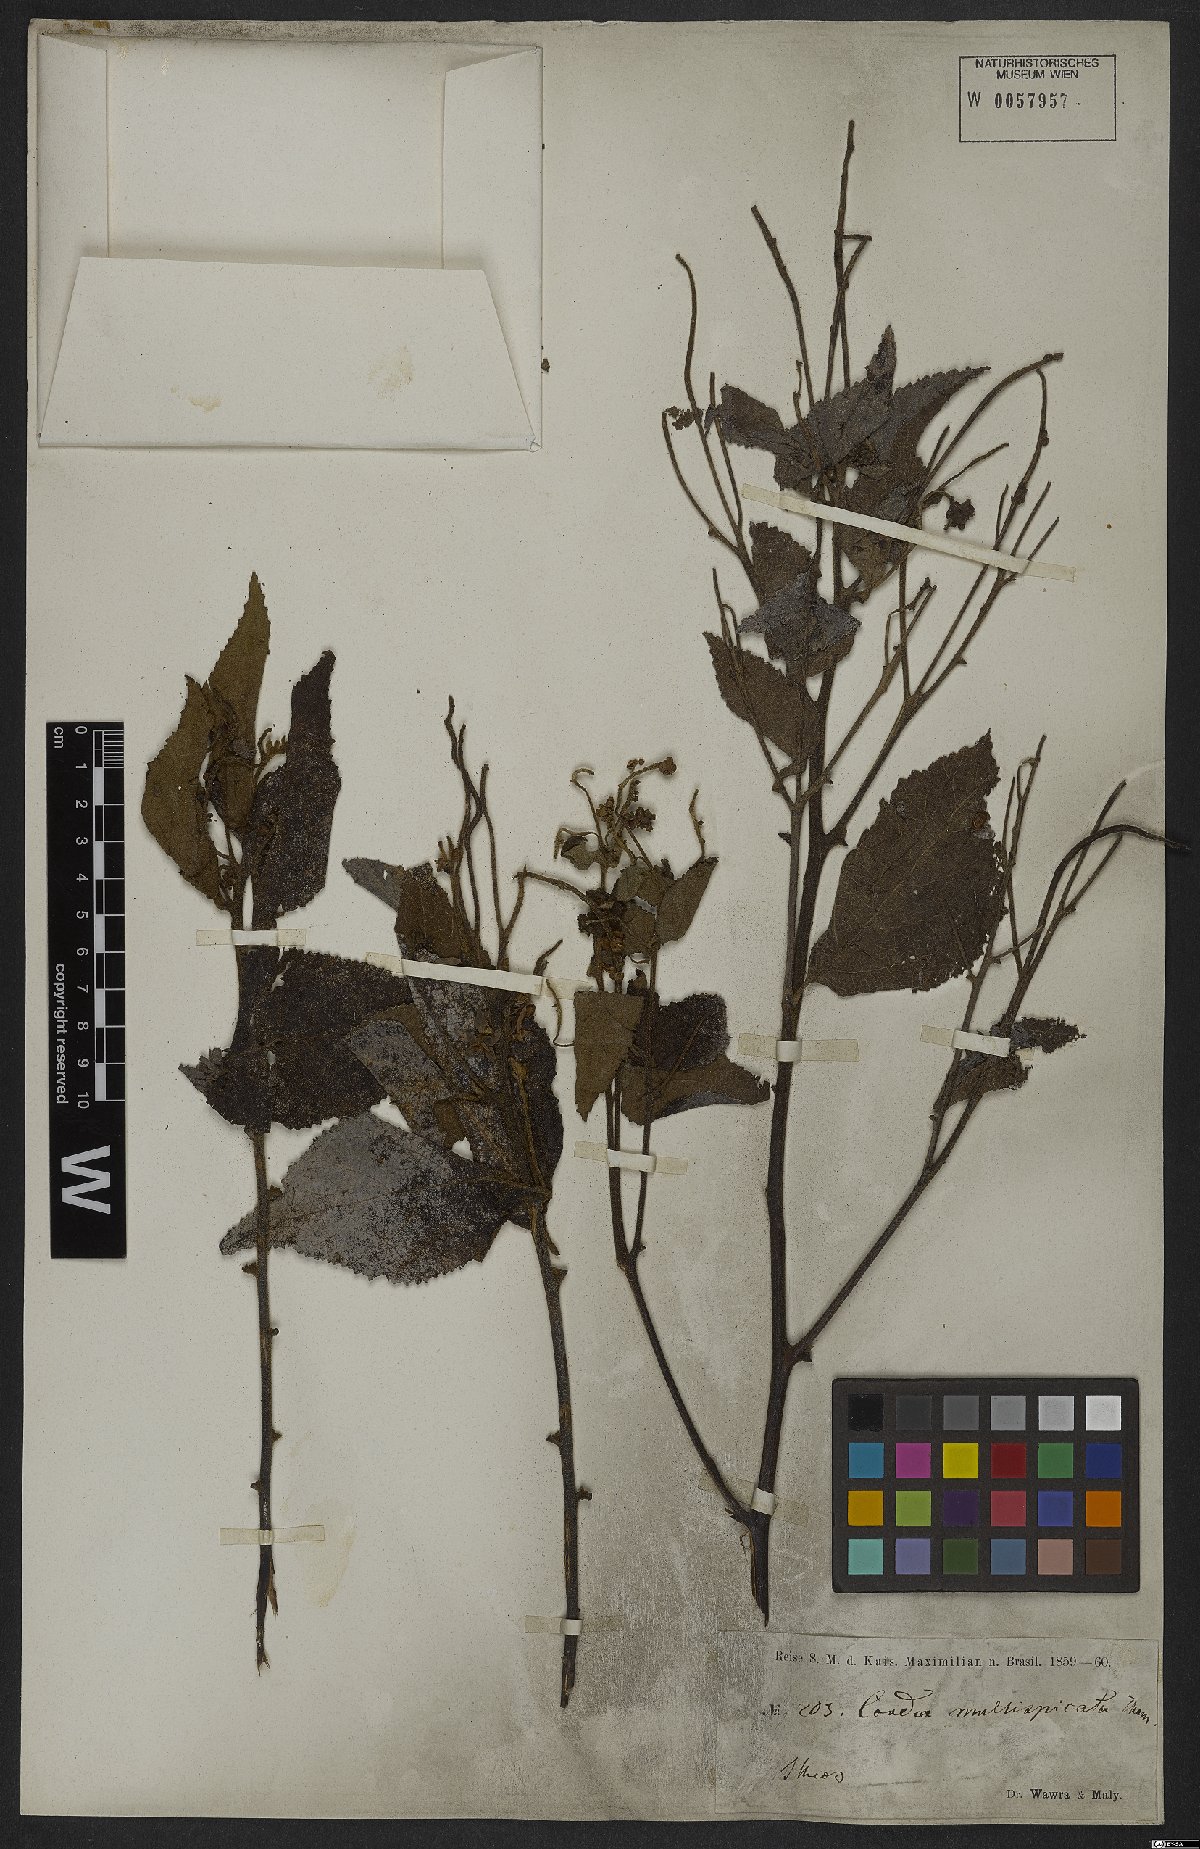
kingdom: Plantae
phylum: Tracheophyta
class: Magnoliopsida
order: Boraginales
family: Cordiaceae
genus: Varronia
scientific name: Varronia multispicata
